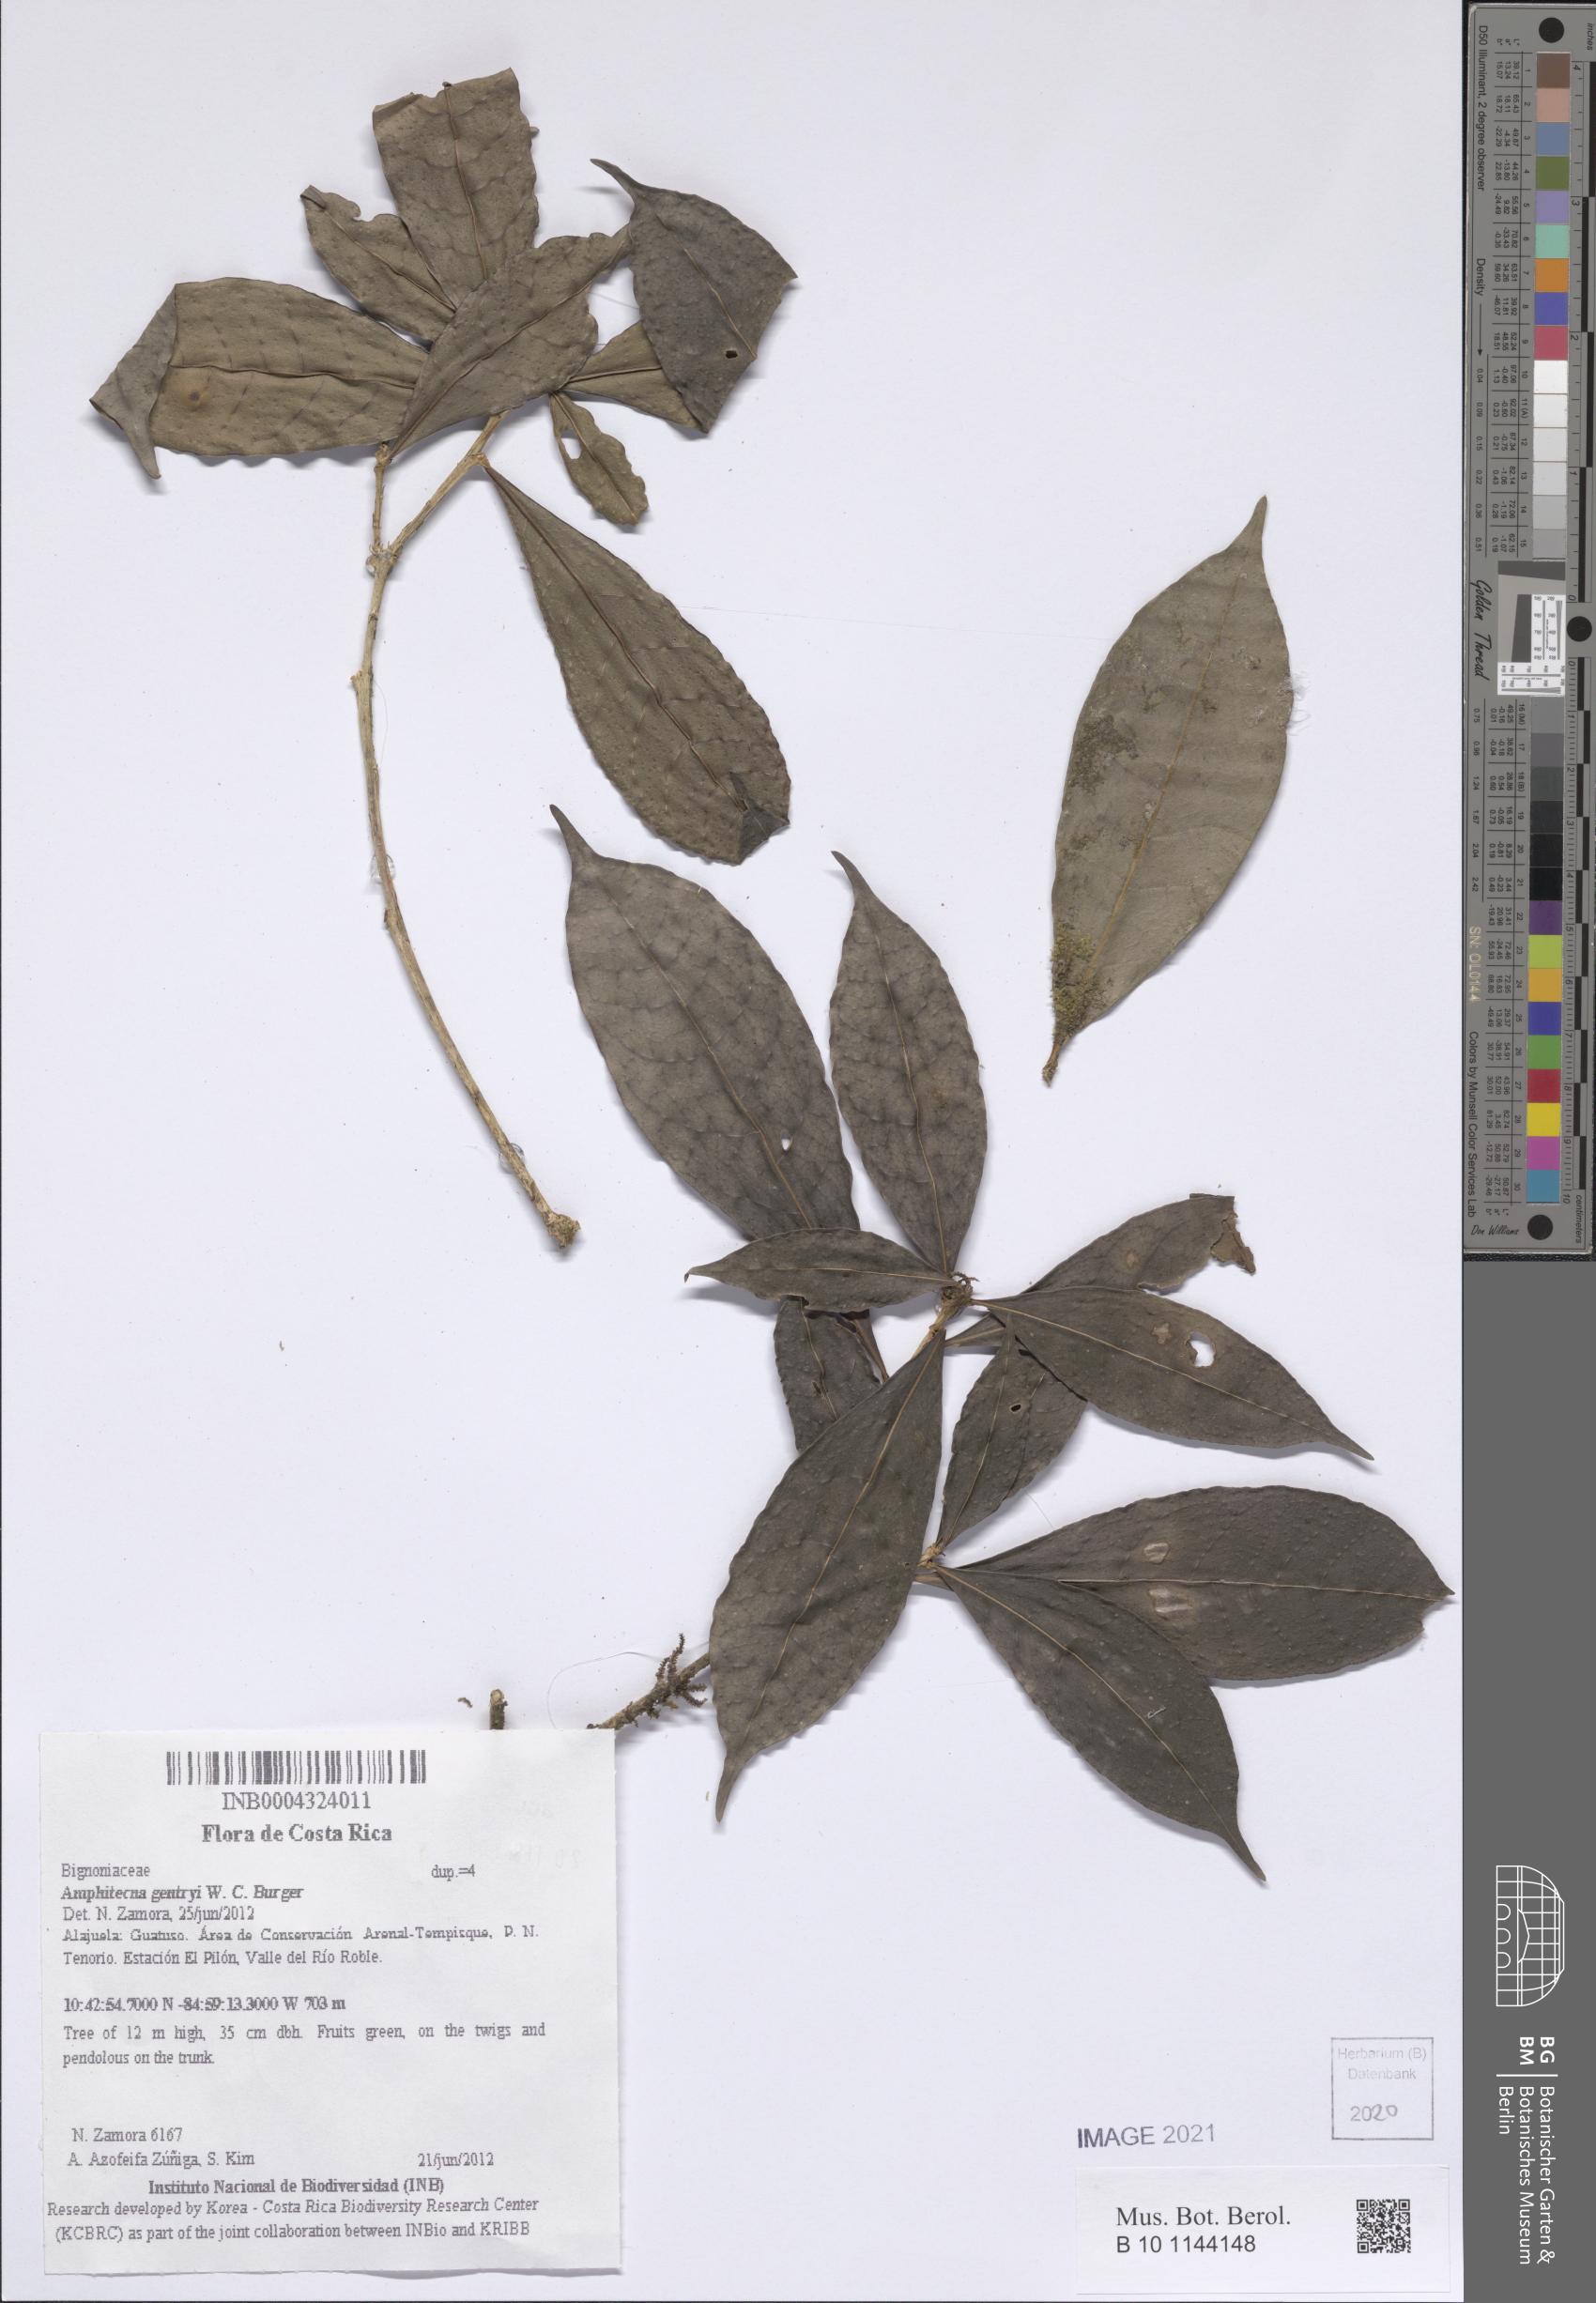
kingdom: Plantae
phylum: Tracheophyta
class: Magnoliopsida
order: Lamiales
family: Bignoniaceae
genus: Amphitecna
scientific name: Amphitecna gentryi
